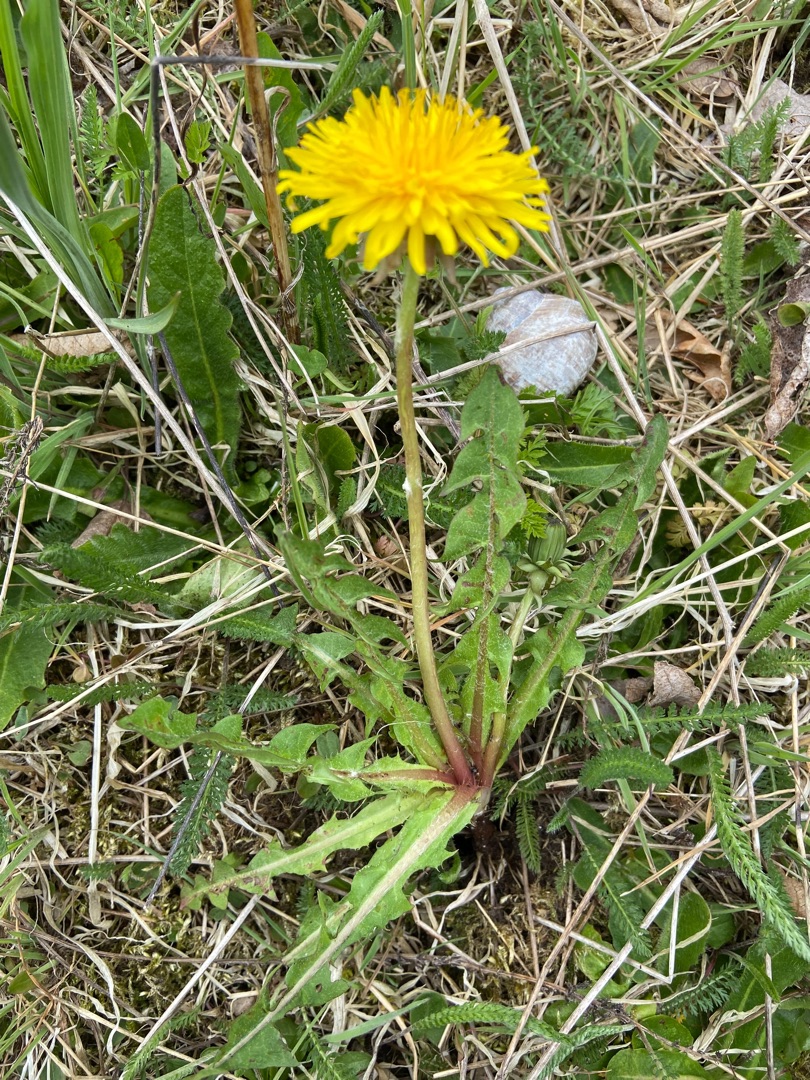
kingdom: Plantae
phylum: Tracheophyta
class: Magnoliopsida
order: Asterales
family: Asteraceae
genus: Taraxacum
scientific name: Taraxacum
